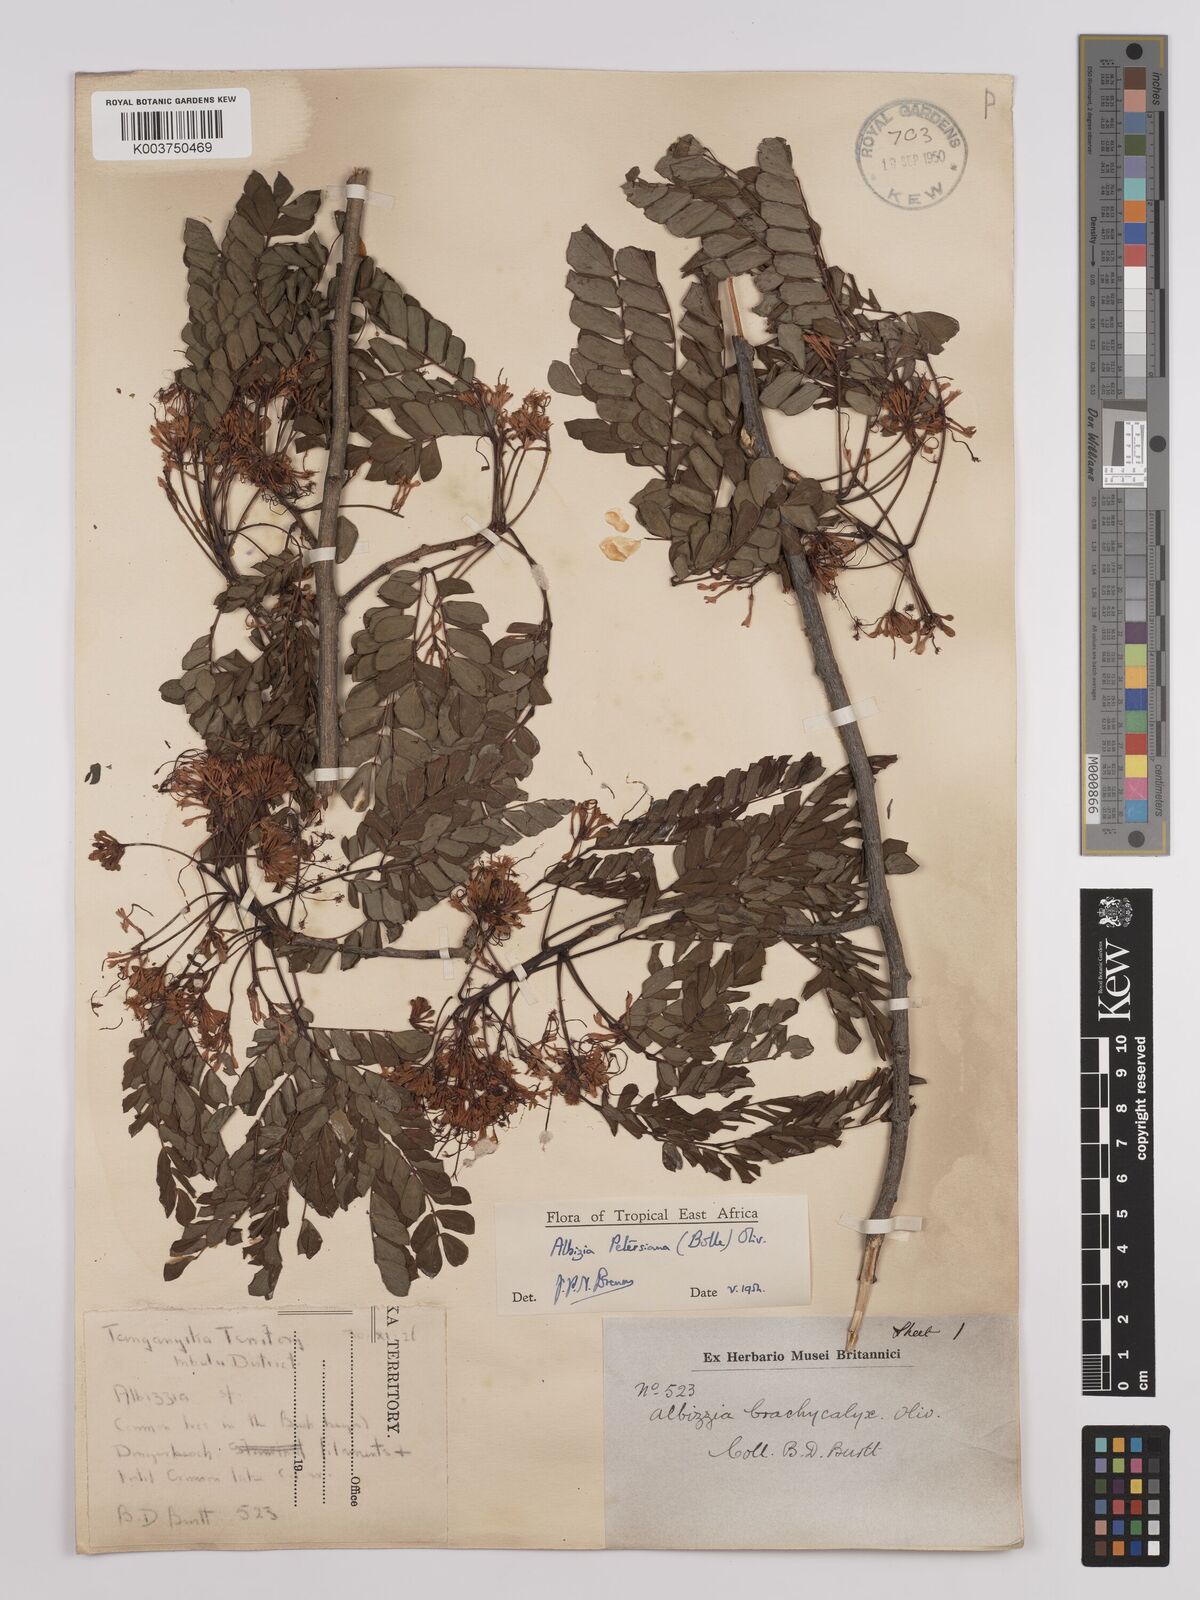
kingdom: Plantae
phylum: Tracheophyta
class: Magnoliopsida
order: Fabales
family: Fabaceae
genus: Albizia
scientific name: Albizia petersiana
